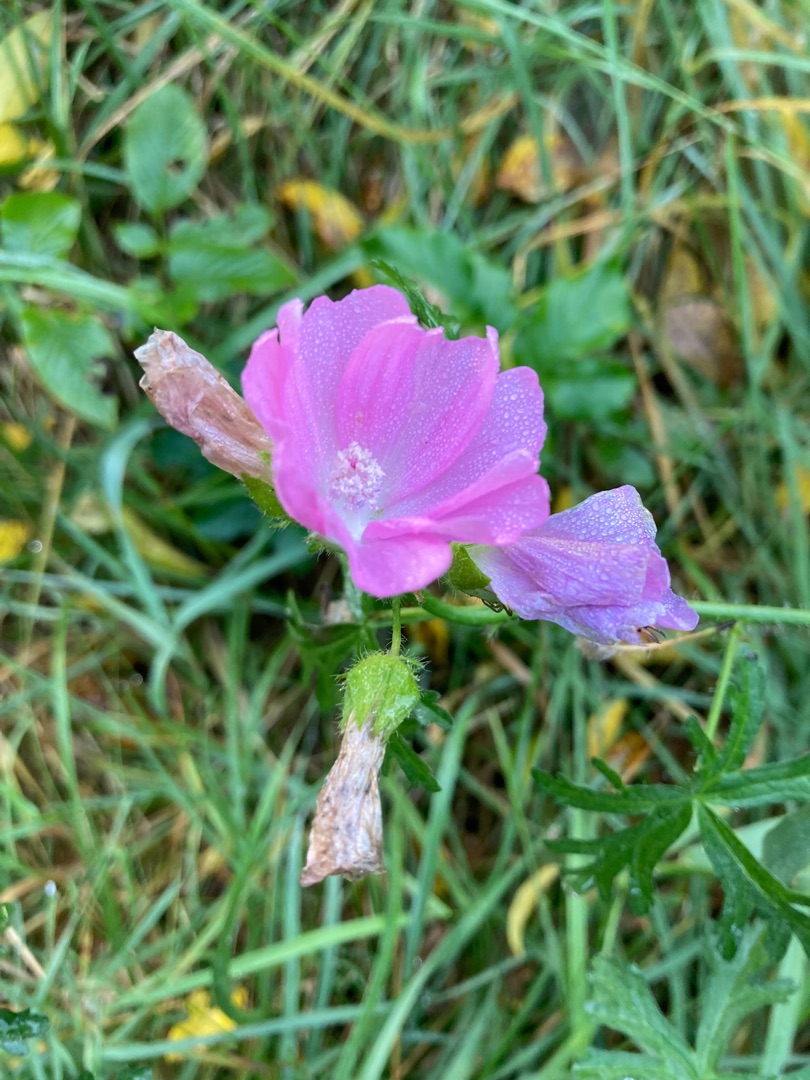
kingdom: Plantae
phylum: Tracheophyta
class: Magnoliopsida
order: Malvales
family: Malvaceae
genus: Malva
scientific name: Malva moschata
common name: Moskus-katost
